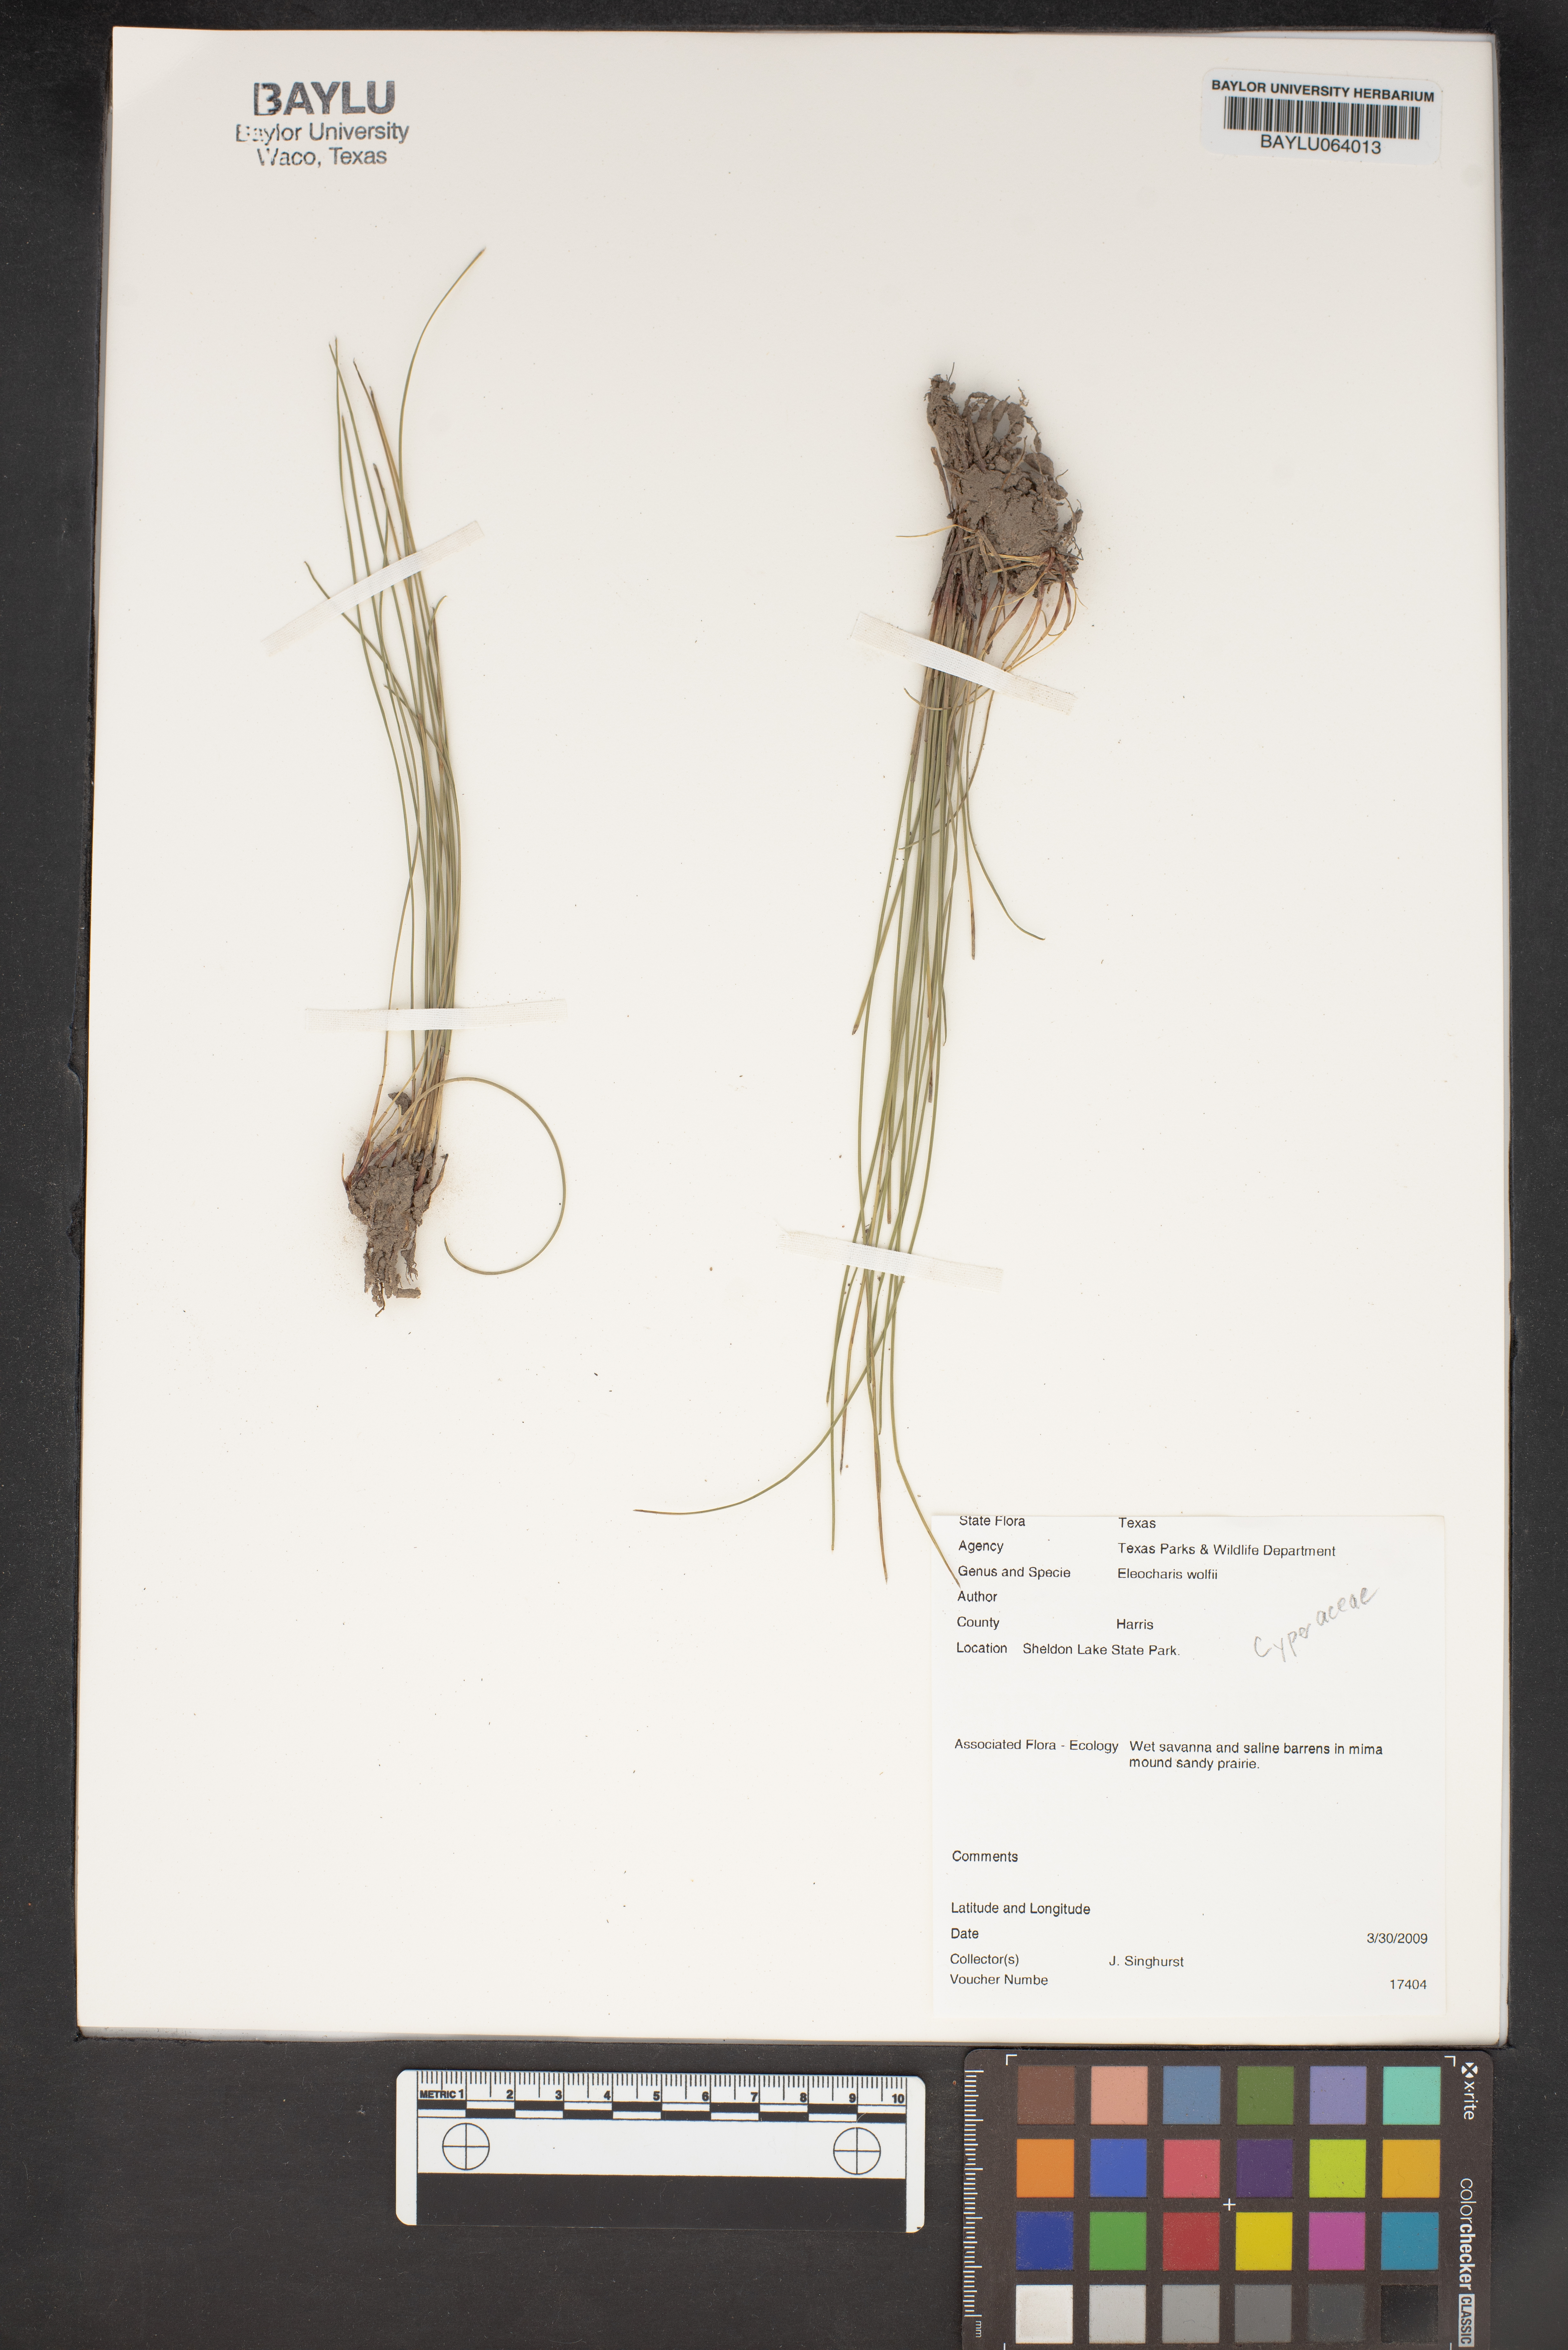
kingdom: Plantae
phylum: Tracheophyta
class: Liliopsida
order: Poales
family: Cyperaceae
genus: Eleocharis
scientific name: Eleocharis wolfii
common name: Wolf's spikerush
